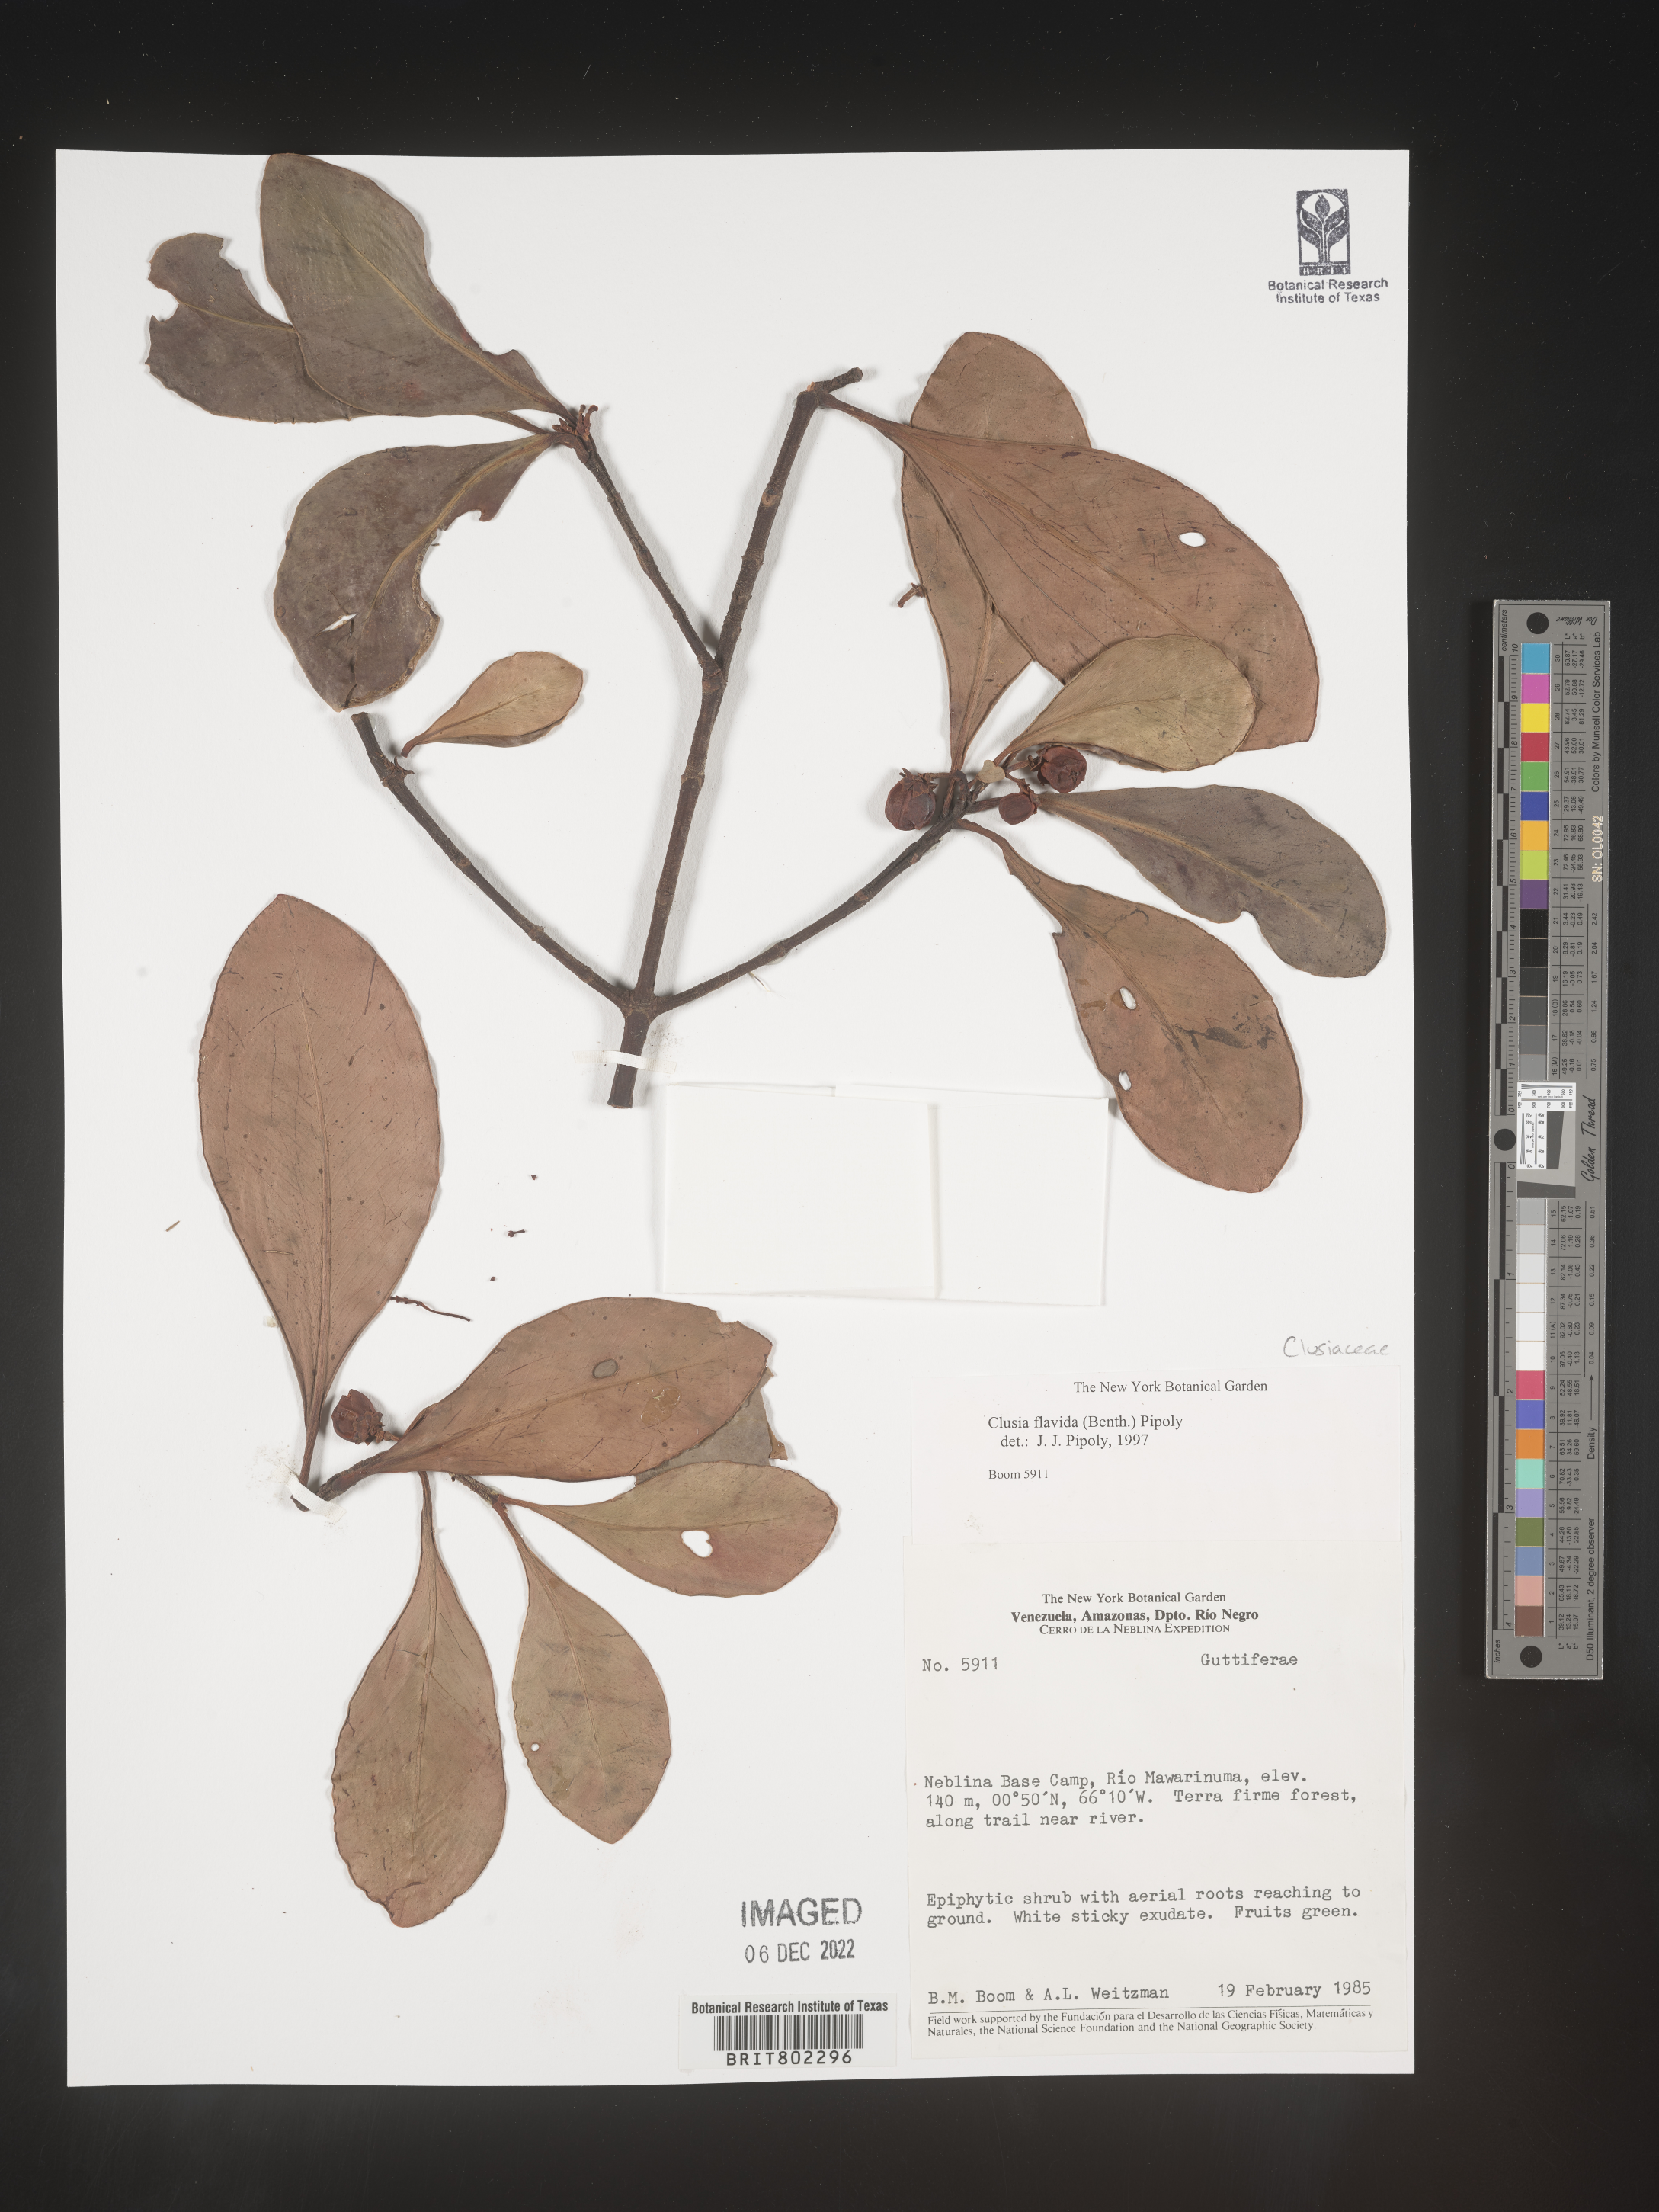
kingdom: Plantae
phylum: Tracheophyta
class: Magnoliopsida
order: Malpighiales
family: Clusiaceae
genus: Clusia
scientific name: Clusia flavida
